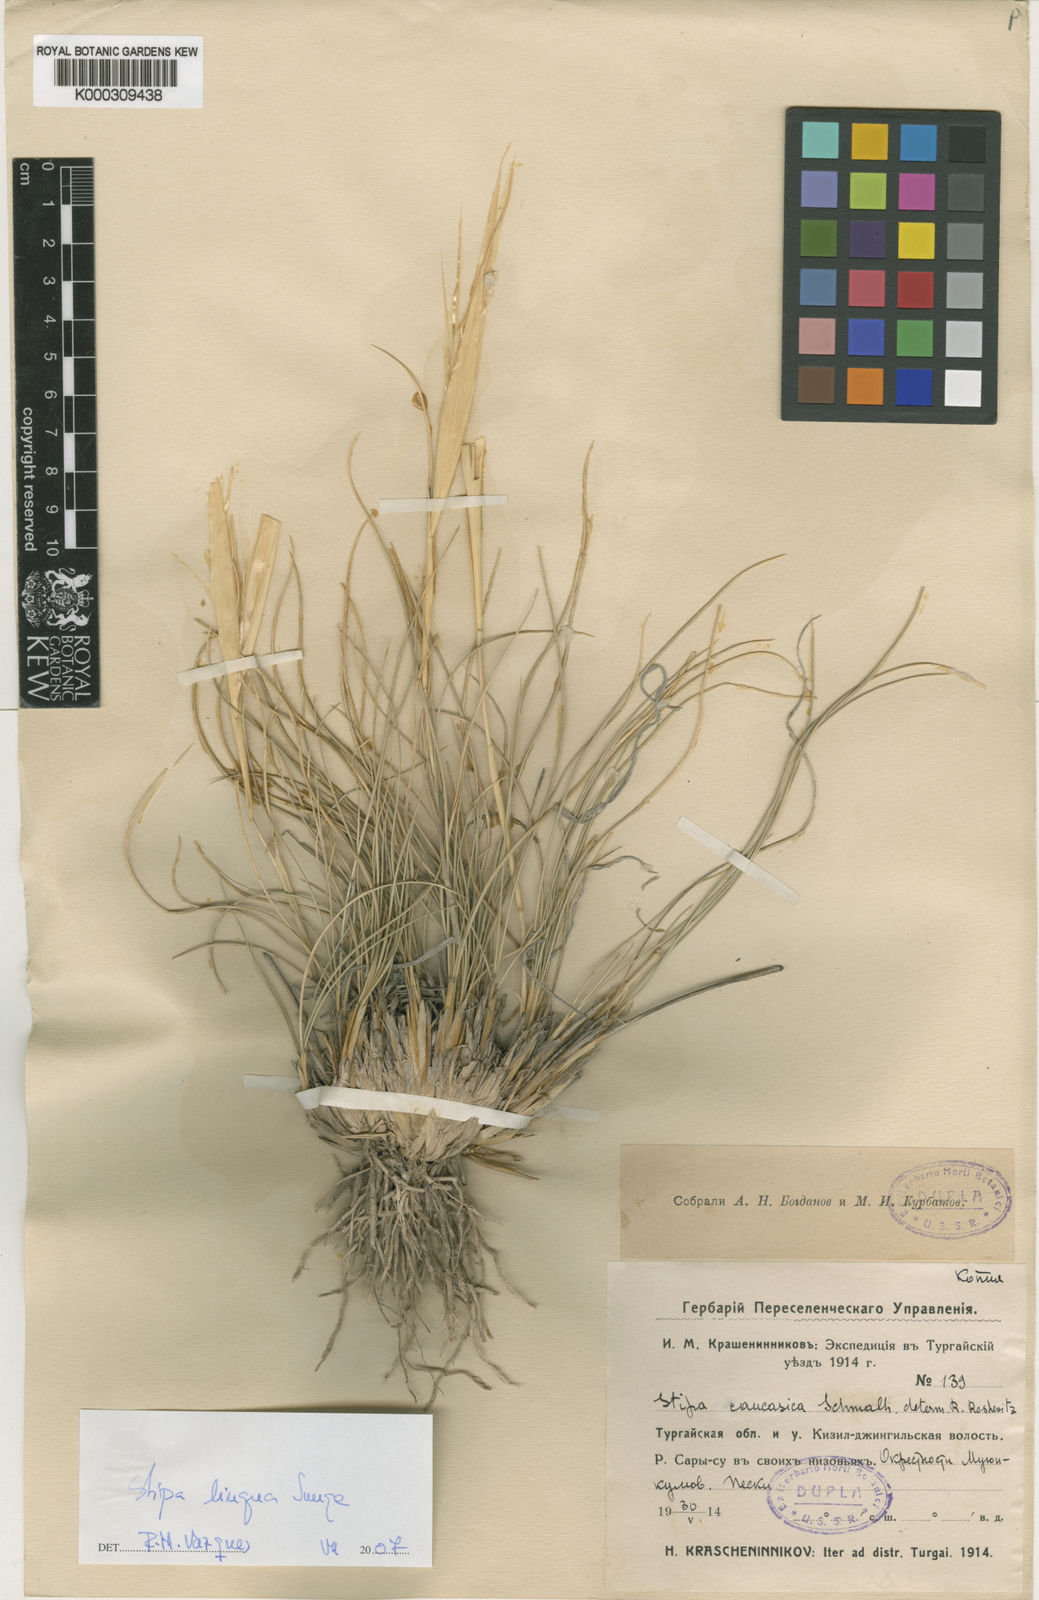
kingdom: Plantae
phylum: Tracheophyta
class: Liliopsida
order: Poales
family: Poaceae
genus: Stipa
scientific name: Stipa caucasica
